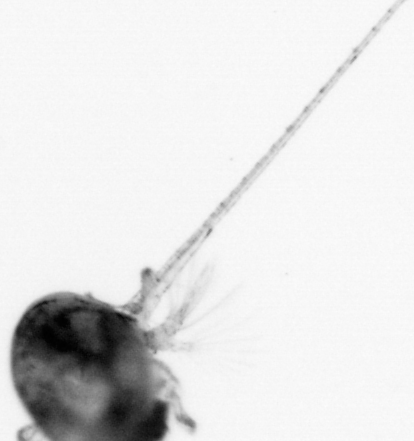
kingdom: Animalia
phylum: Arthropoda
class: Copepoda
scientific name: Copepoda
